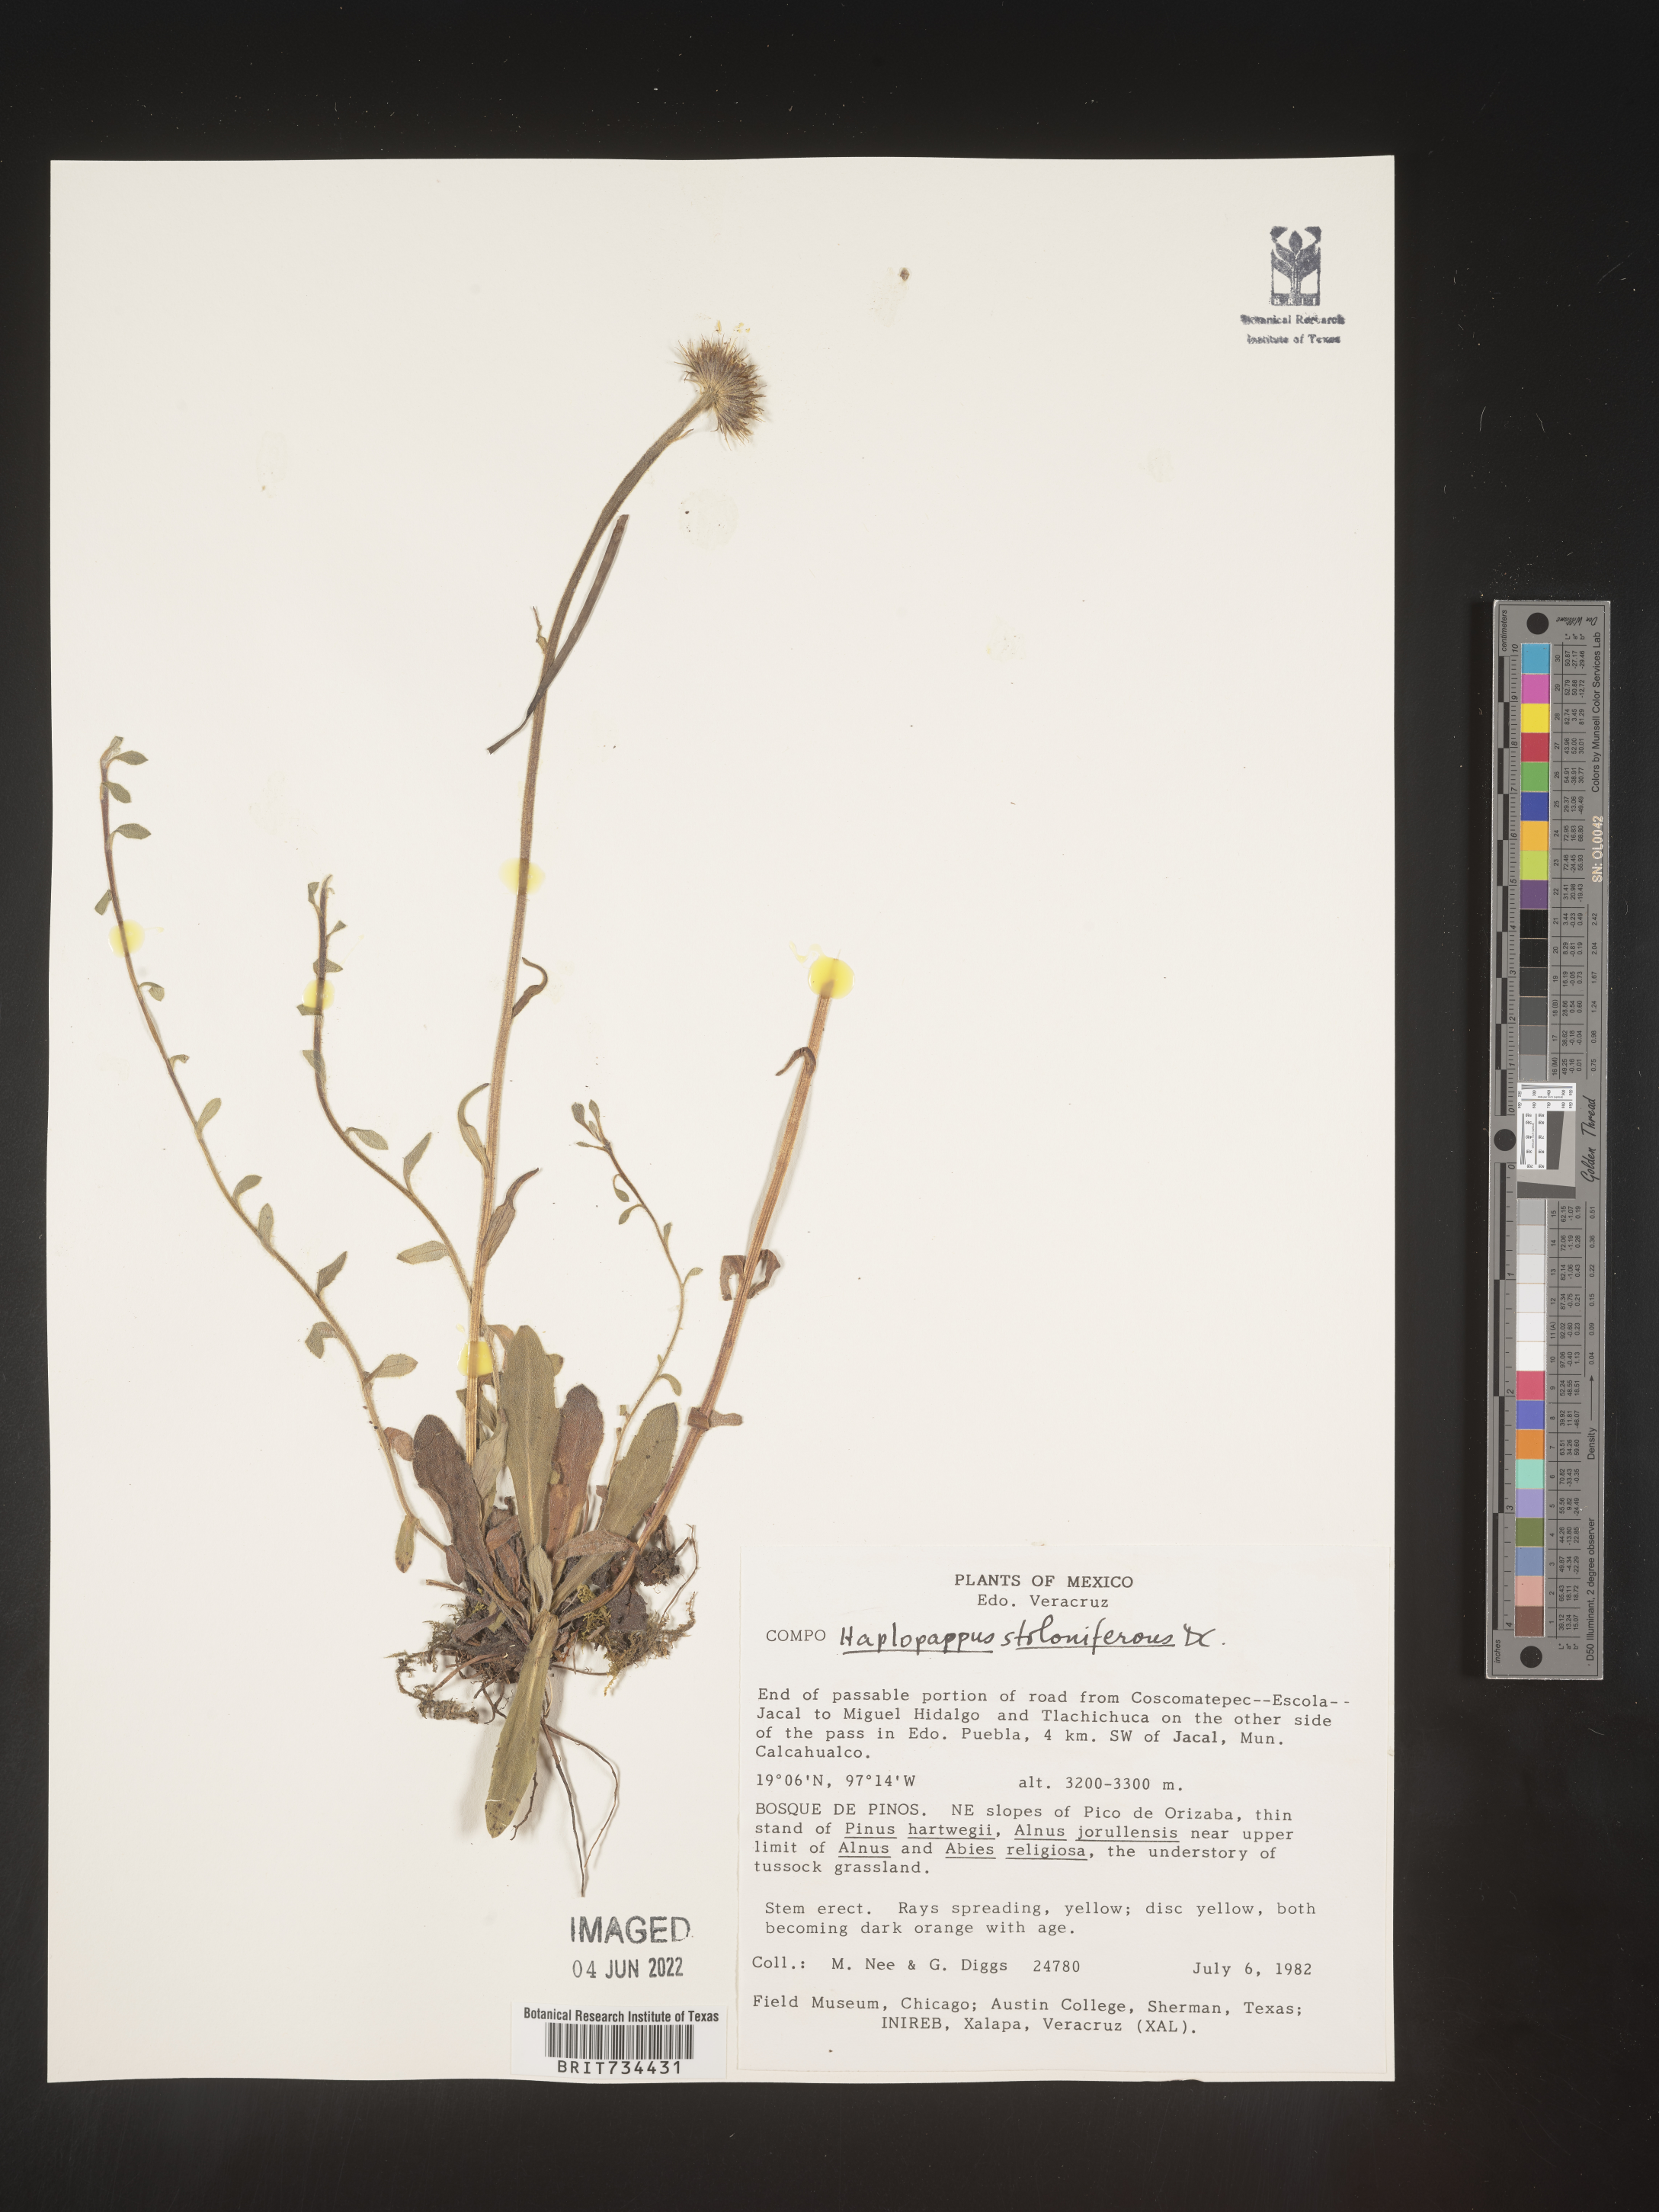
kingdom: Plantae
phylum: Tracheophyta
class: Magnoliopsida
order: Asterales
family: Asteraceae
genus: Osbertia
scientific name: Osbertia stolonifera
